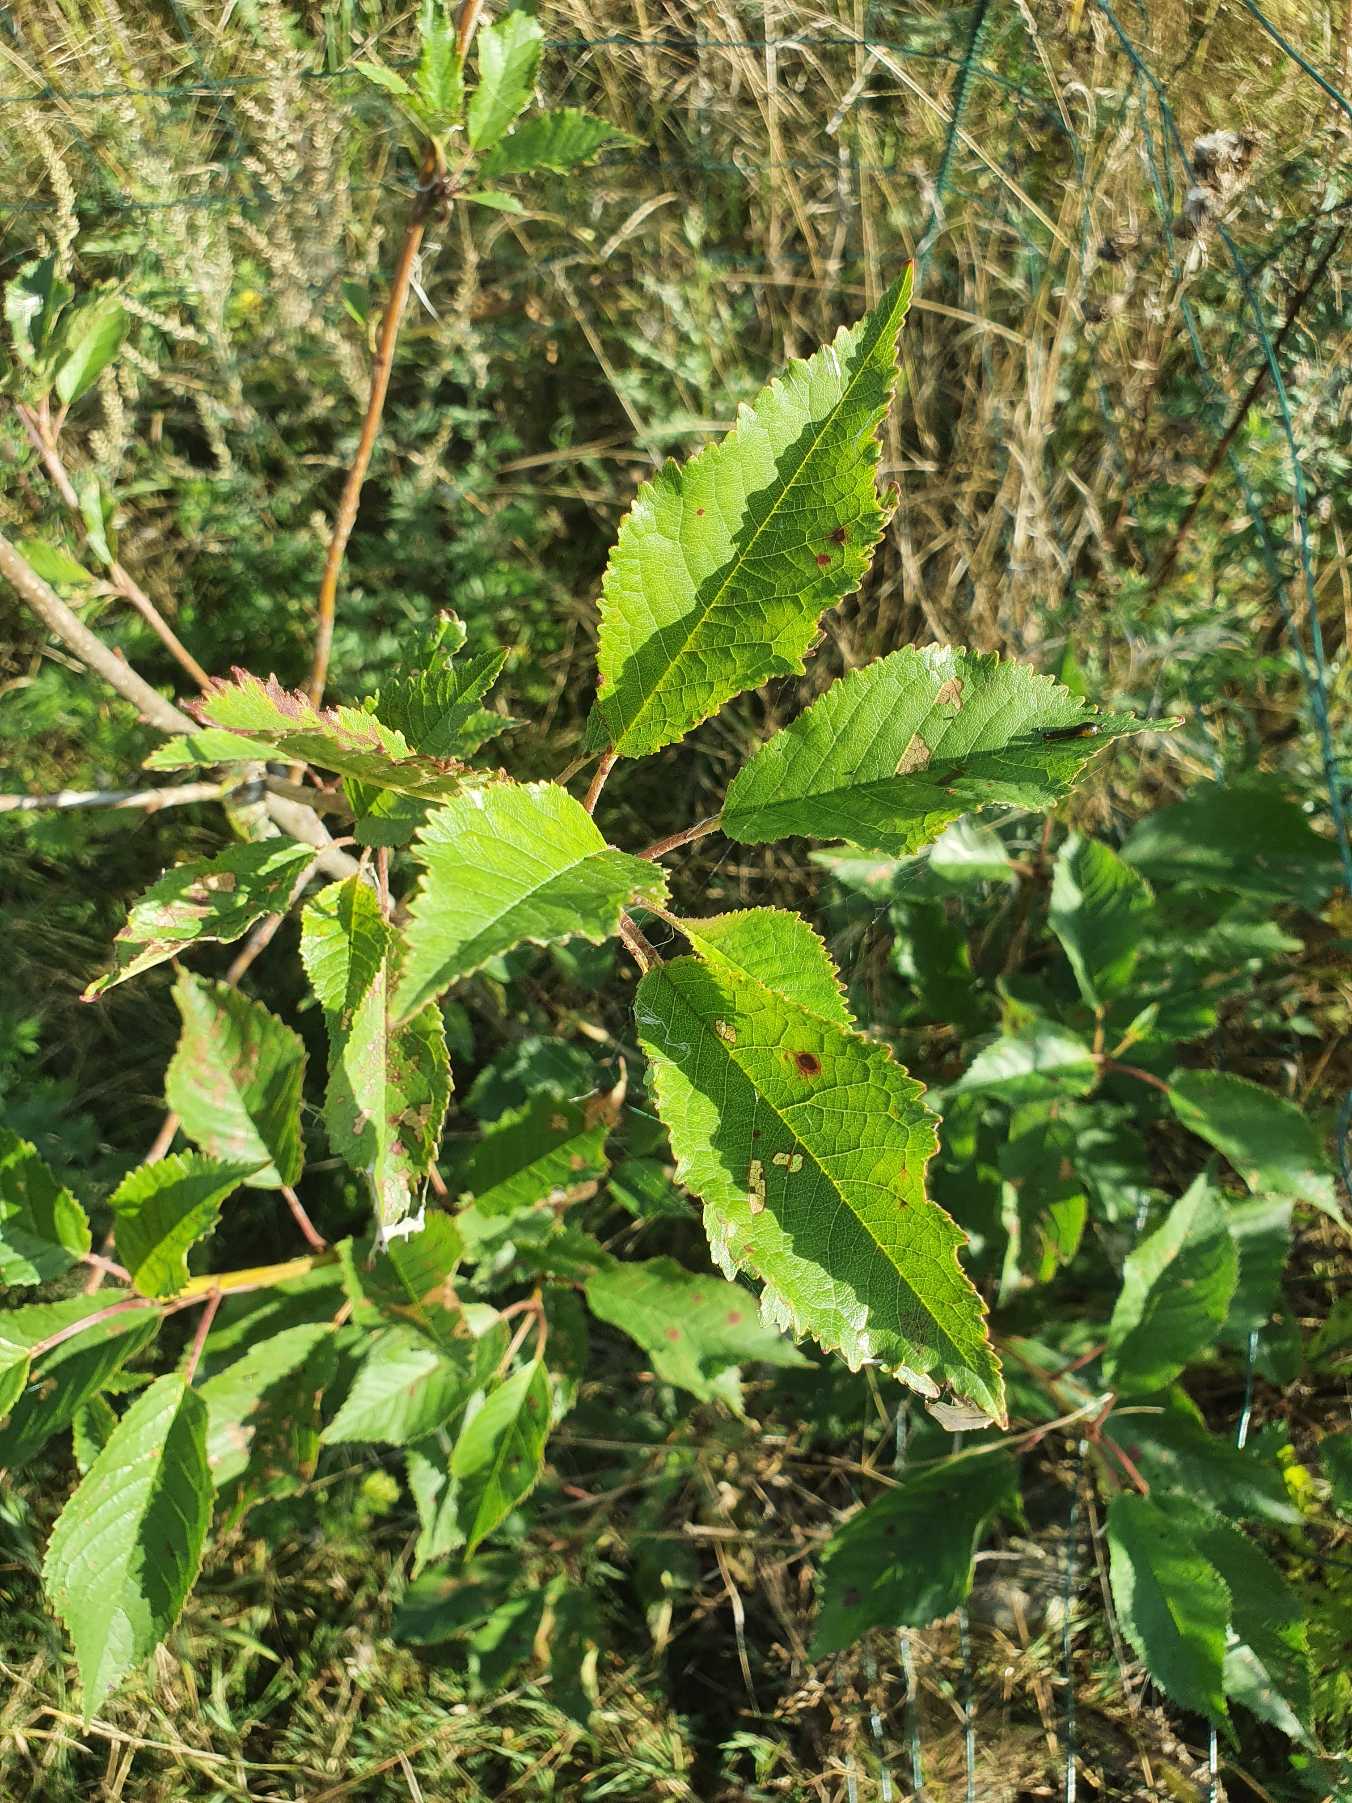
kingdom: Plantae
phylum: Tracheophyta
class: Magnoliopsida
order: Rosales
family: Rosaceae
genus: Prunus
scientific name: Prunus avium
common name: Fugle-kirsebær
